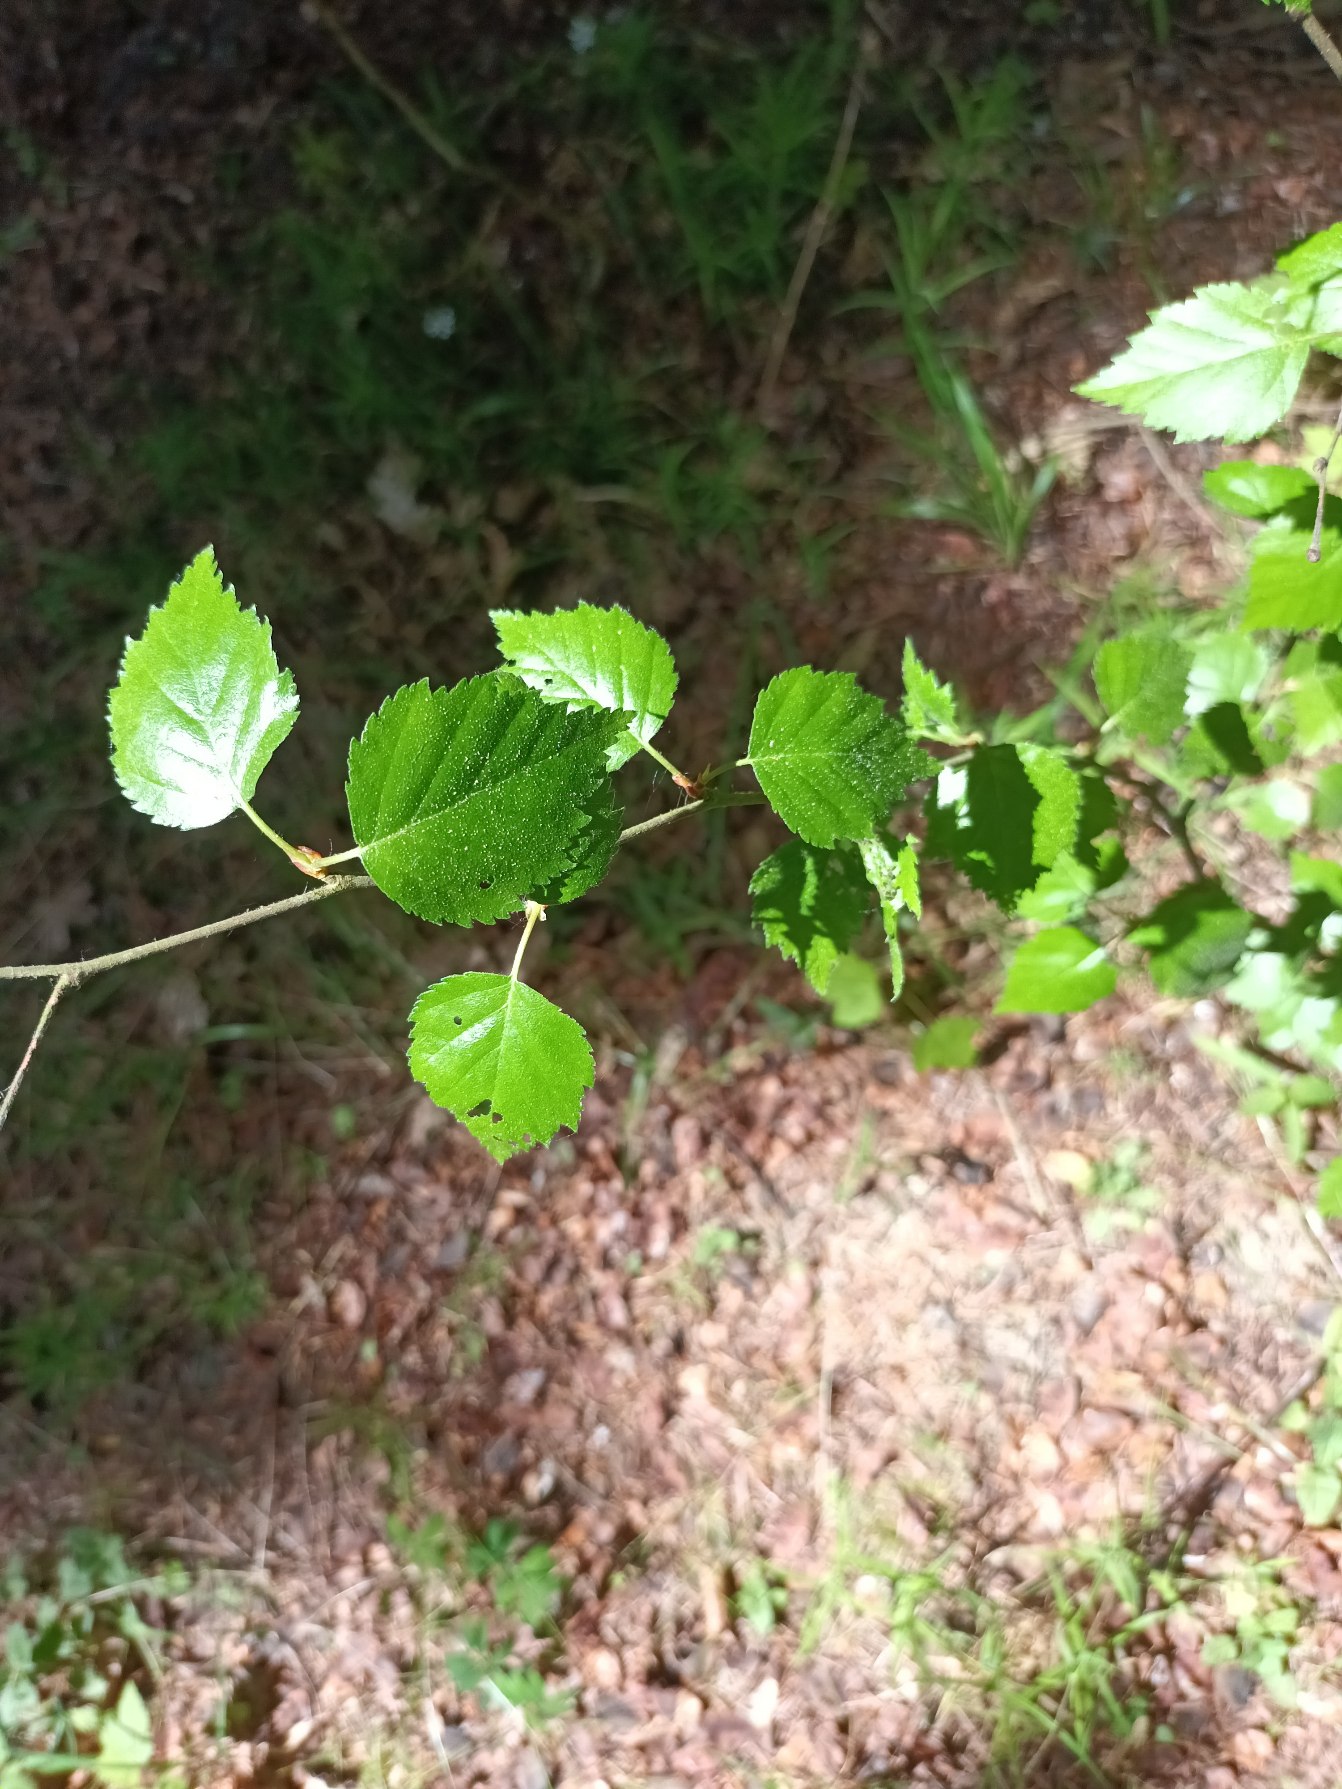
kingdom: Plantae
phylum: Tracheophyta
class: Magnoliopsida
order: Fagales
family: Betulaceae
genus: Betula
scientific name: Betula pendula
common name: Vorte-birk
